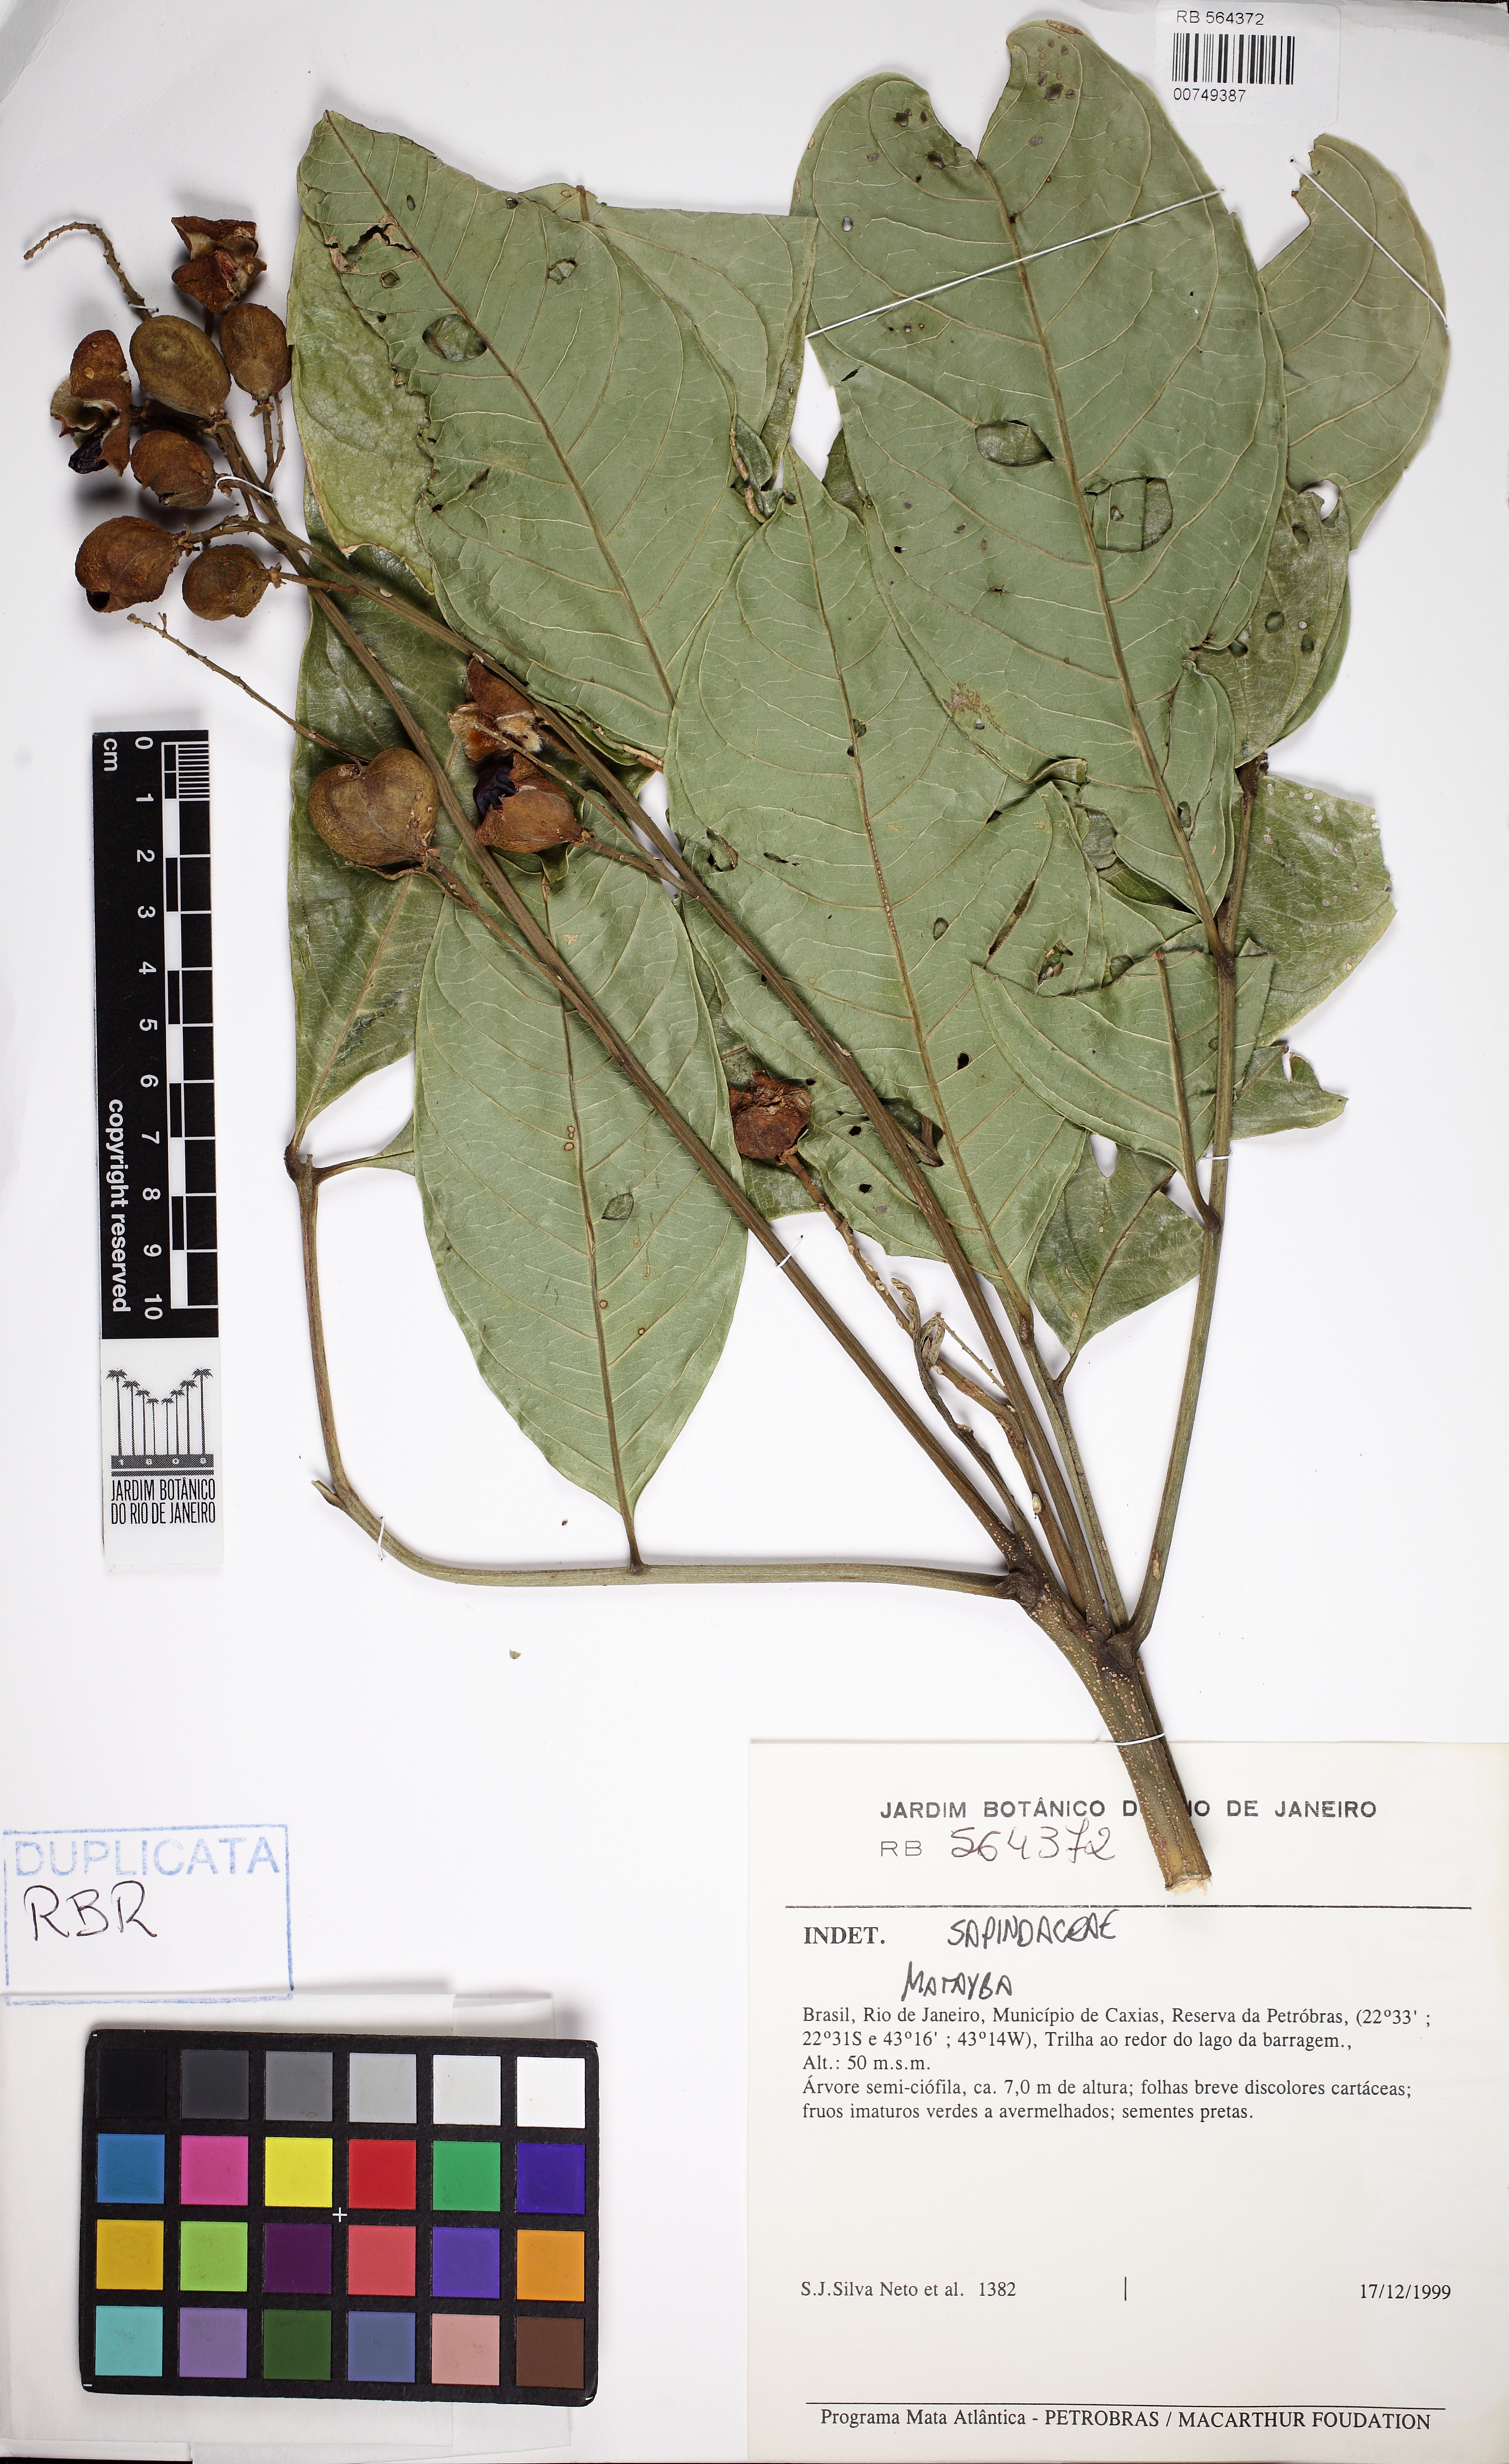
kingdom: Plantae
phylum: Tracheophyta
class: Magnoliopsida
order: Sapindales
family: Sapindaceae
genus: Matayba
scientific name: Matayba
